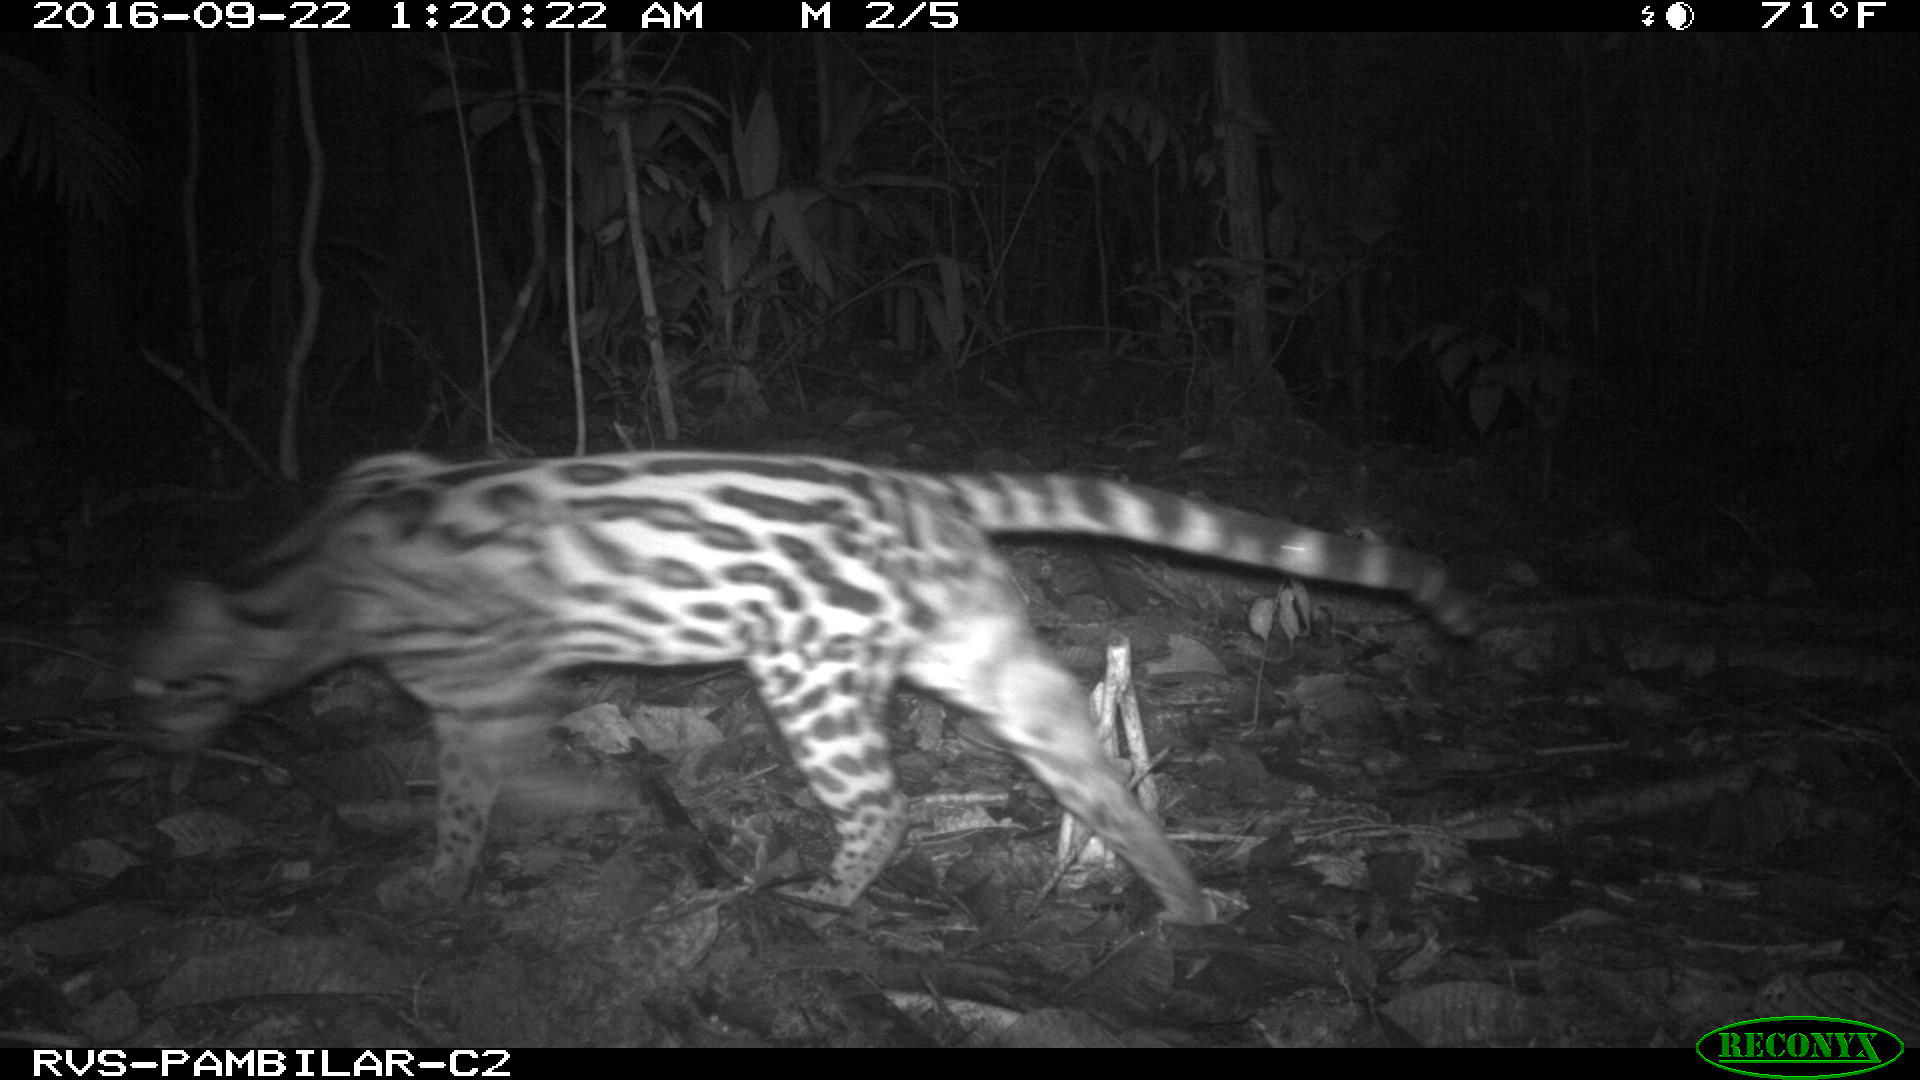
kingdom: Animalia
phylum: Chordata
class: Mammalia
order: Carnivora
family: Felidae
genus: Leopardus
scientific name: Leopardus pardalis
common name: Ocelot
